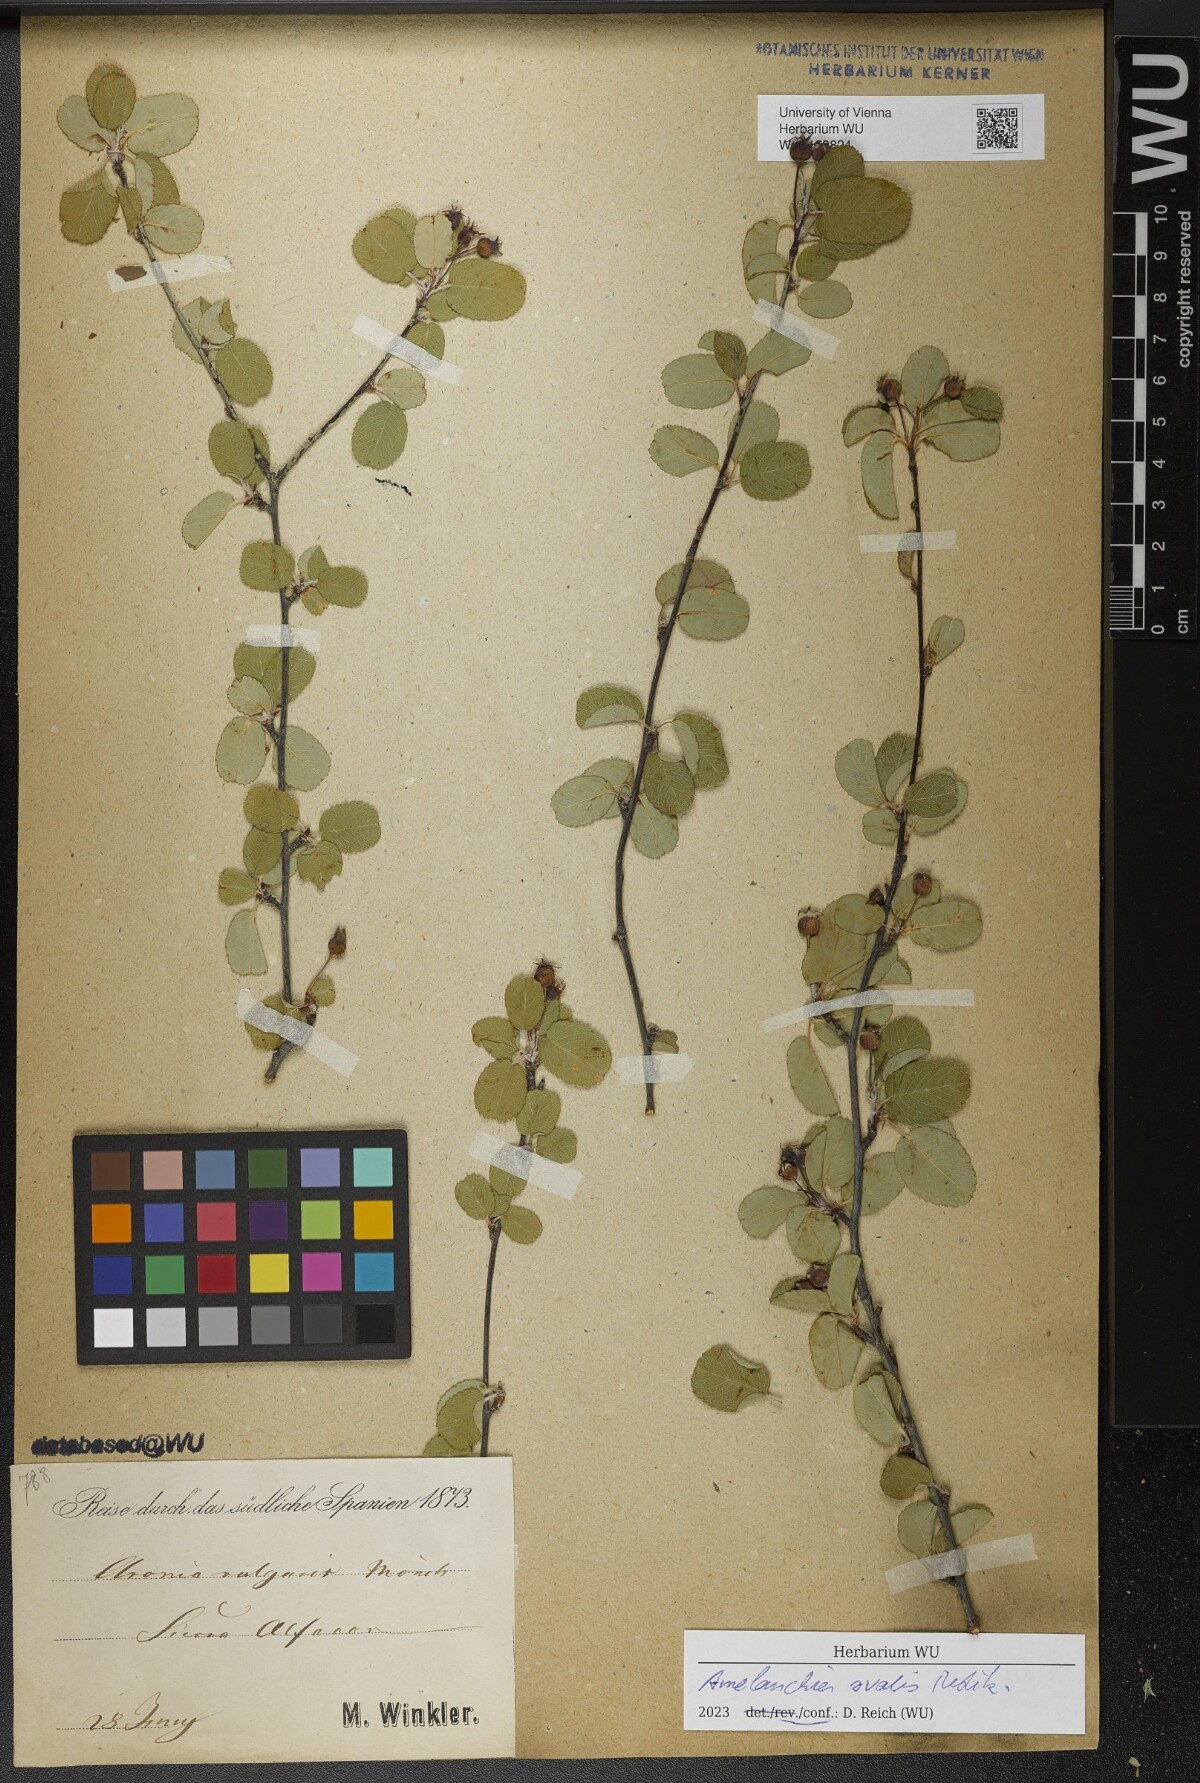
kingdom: Plantae
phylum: Tracheophyta
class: Magnoliopsida
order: Rosales
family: Rosaceae
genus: Amelanchier
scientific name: Amelanchier ovalis
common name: Serviceberry
